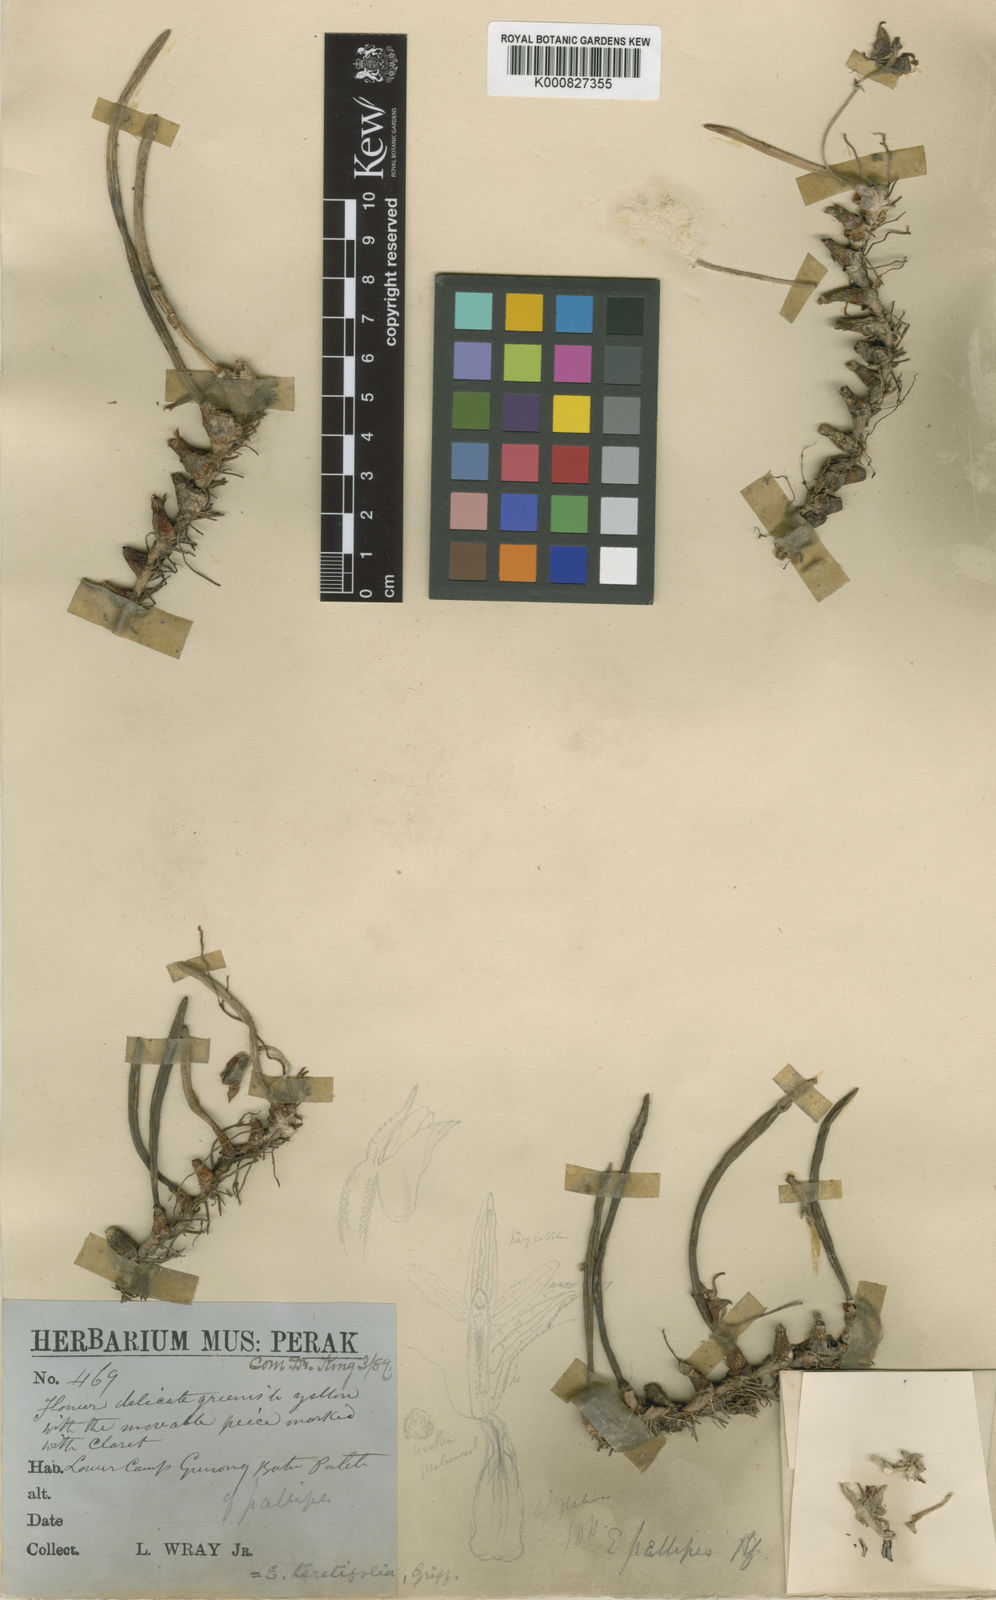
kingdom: Plantae
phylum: Tracheophyta
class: Liliopsida
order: Asparagales
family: Orchidaceae
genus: Strongyleria
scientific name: Strongyleria pellipes
